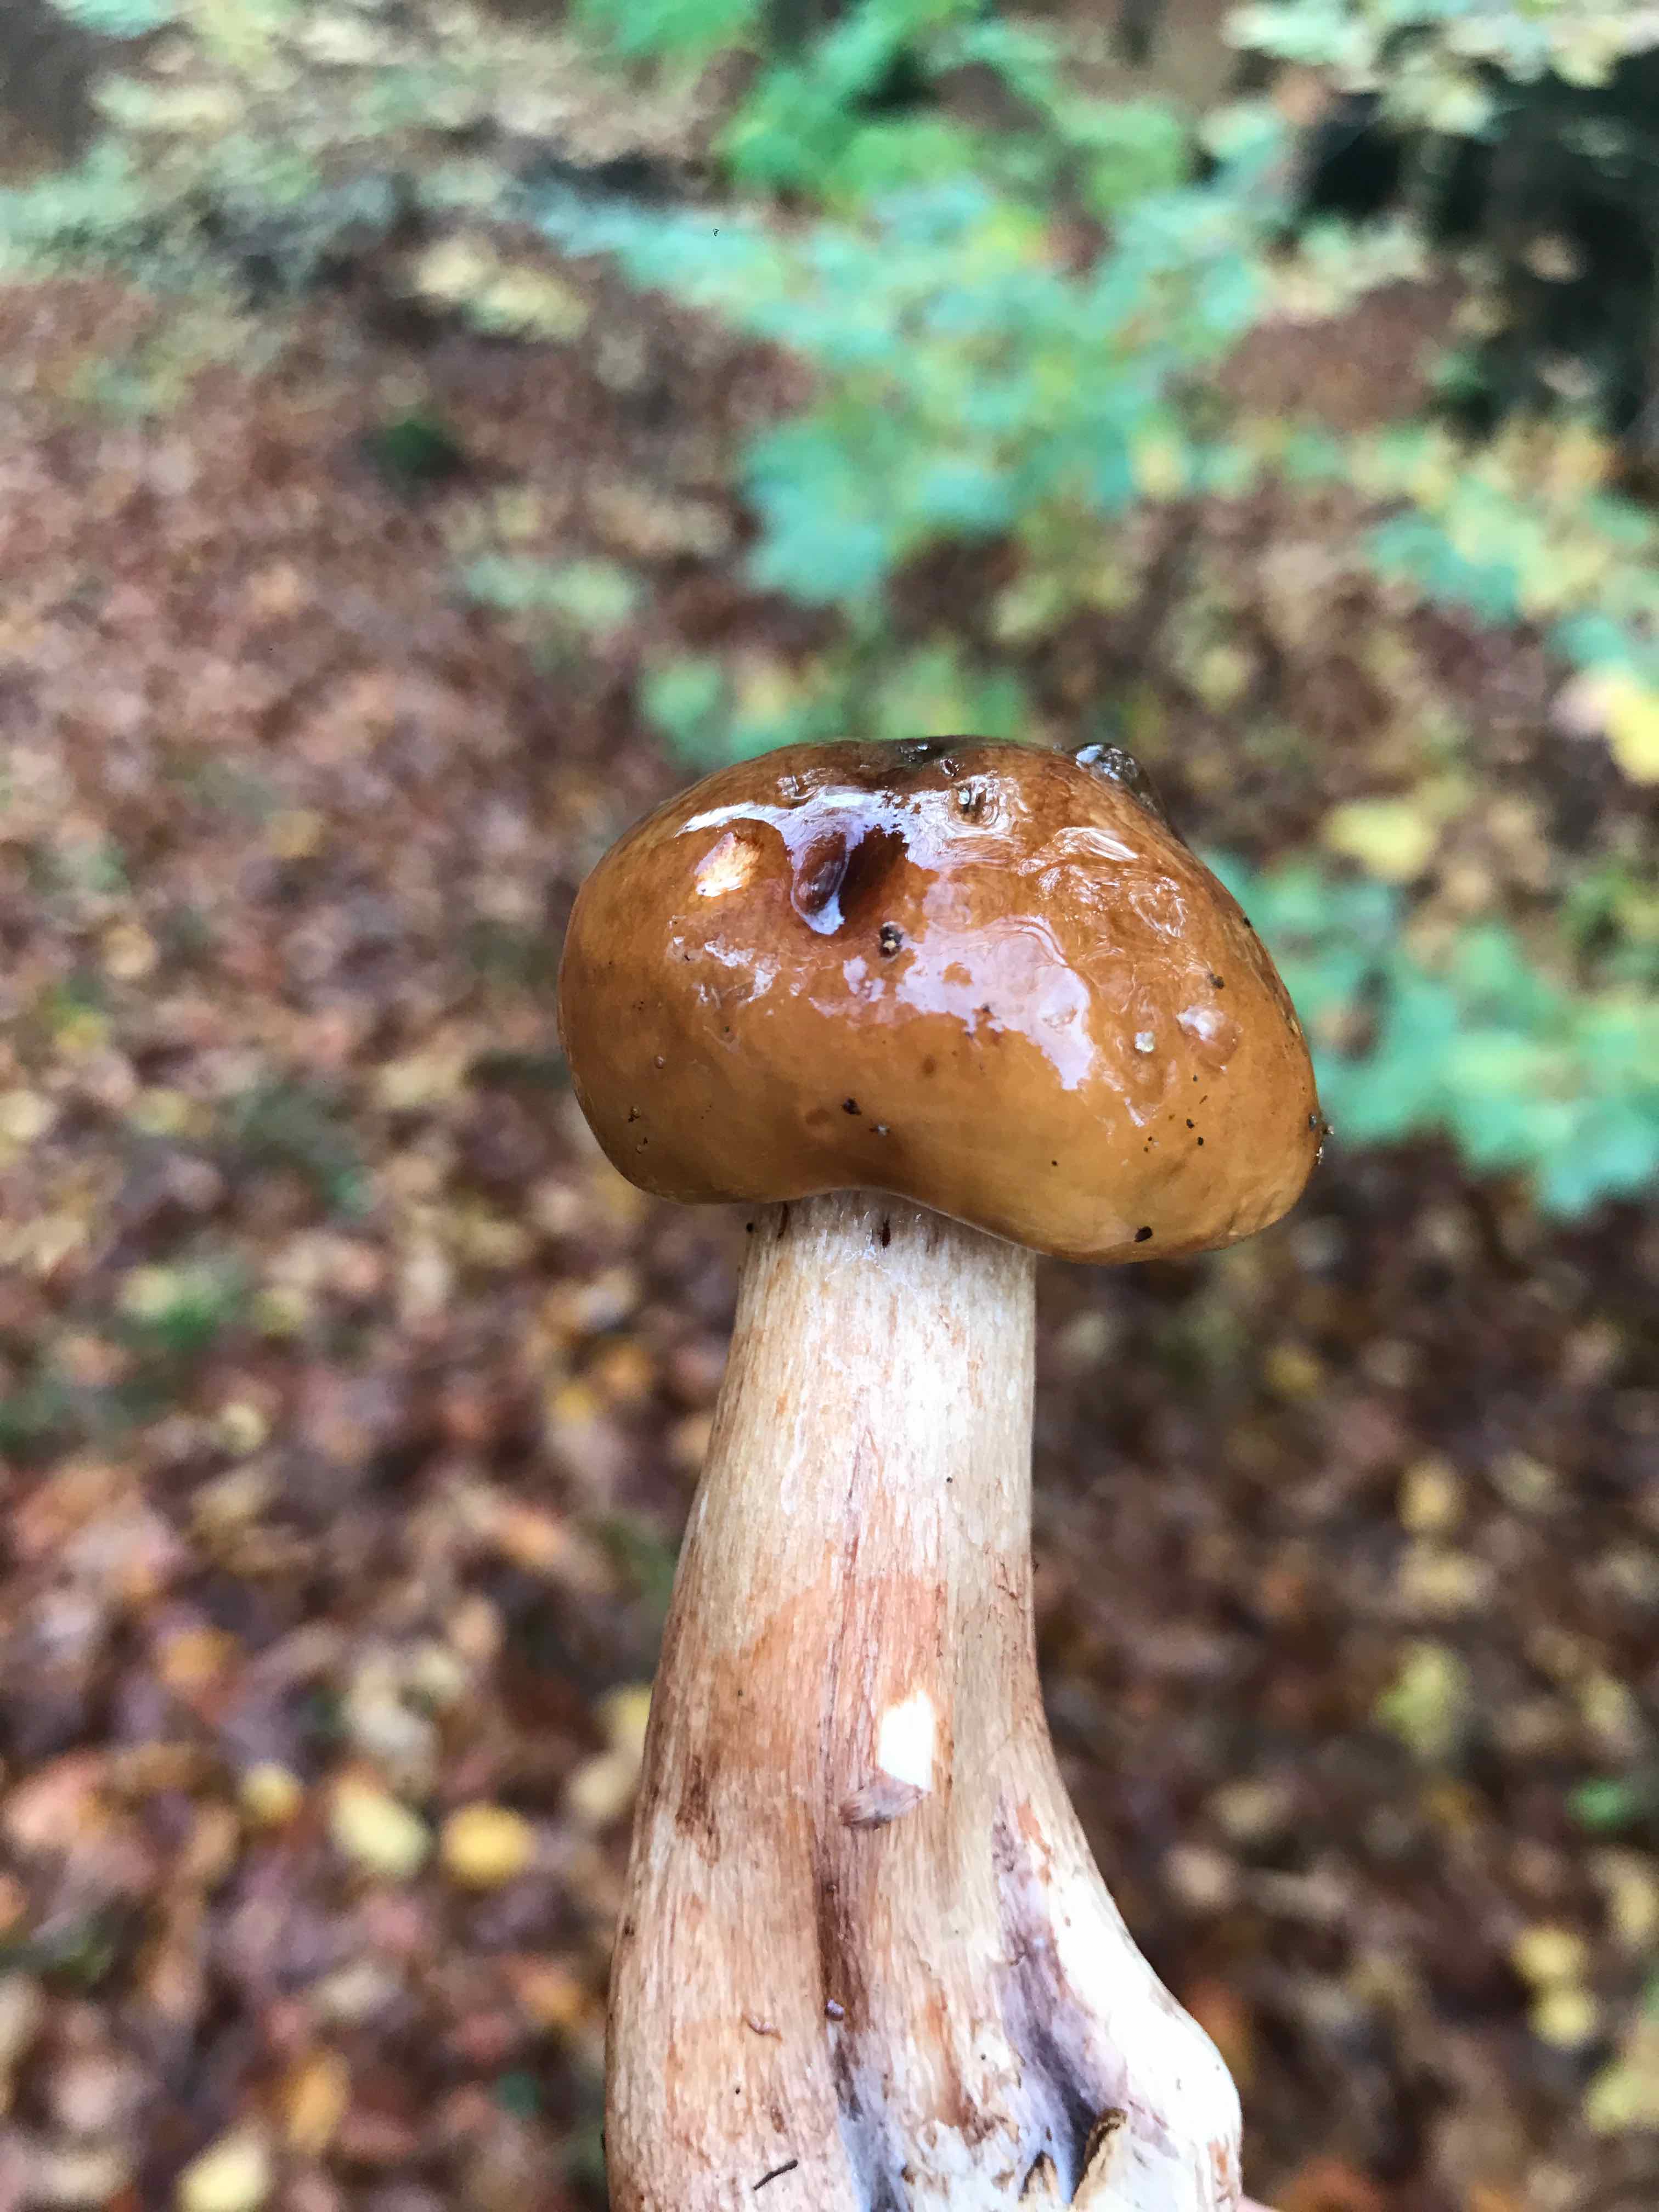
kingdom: Fungi
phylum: Basidiomycota
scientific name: Basidiomycota
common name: basidiesvampe
